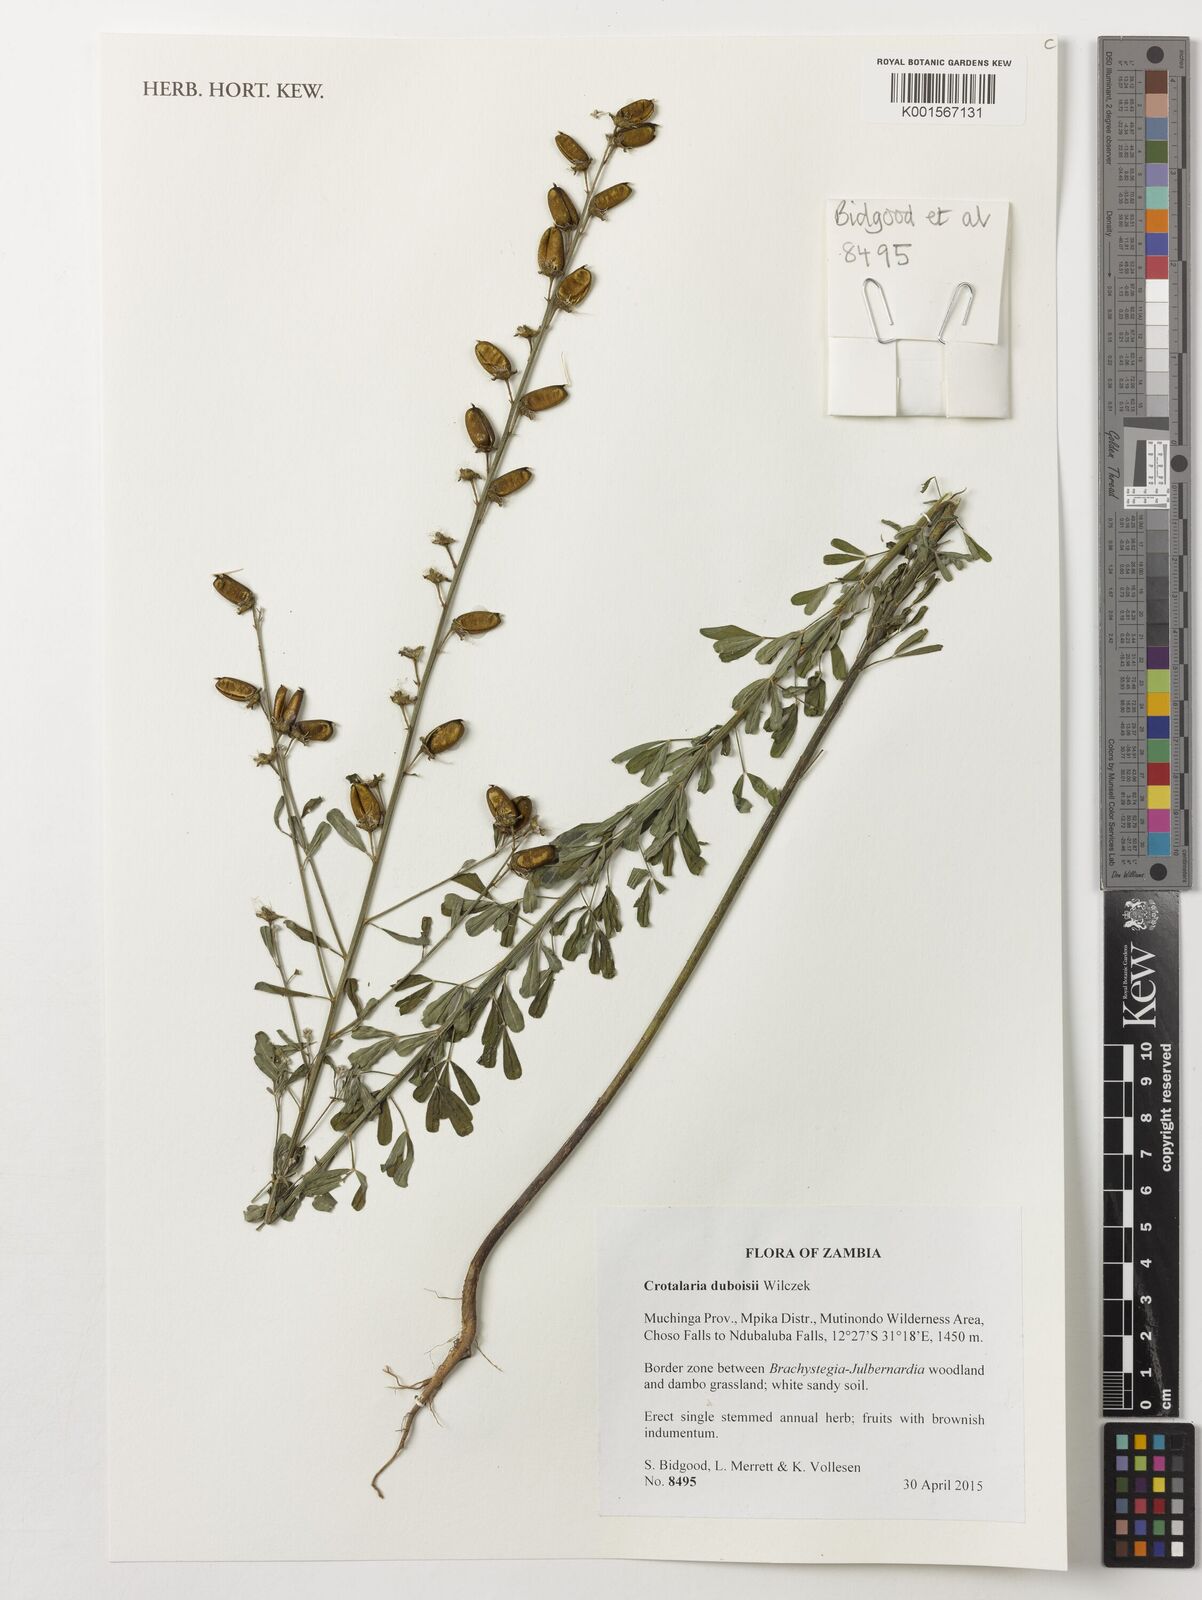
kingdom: Plantae
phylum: Tracheophyta
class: Magnoliopsida
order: Fabales
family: Fabaceae
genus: Crotalaria
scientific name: Crotalaria duboisii
